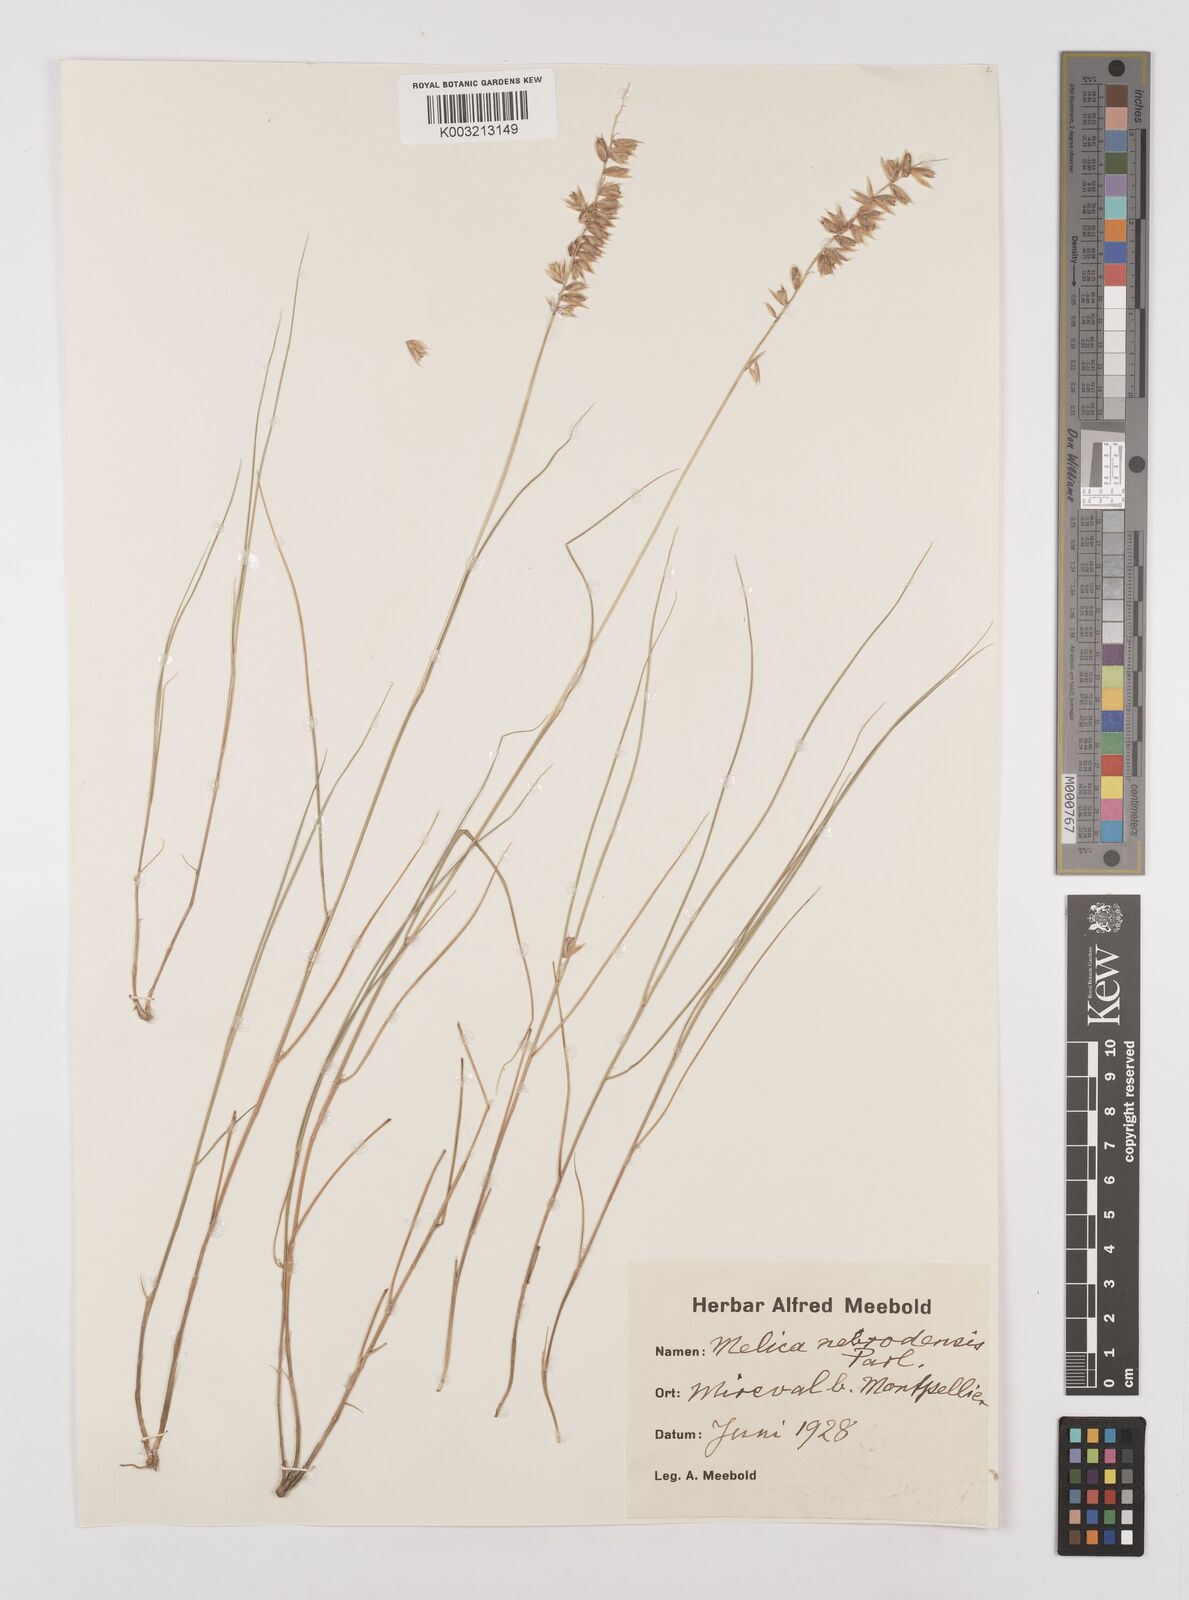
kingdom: Plantae
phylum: Tracheophyta
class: Liliopsida
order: Poales
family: Poaceae
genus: Melica
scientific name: Melica ciliata
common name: Hairy melicgrass
